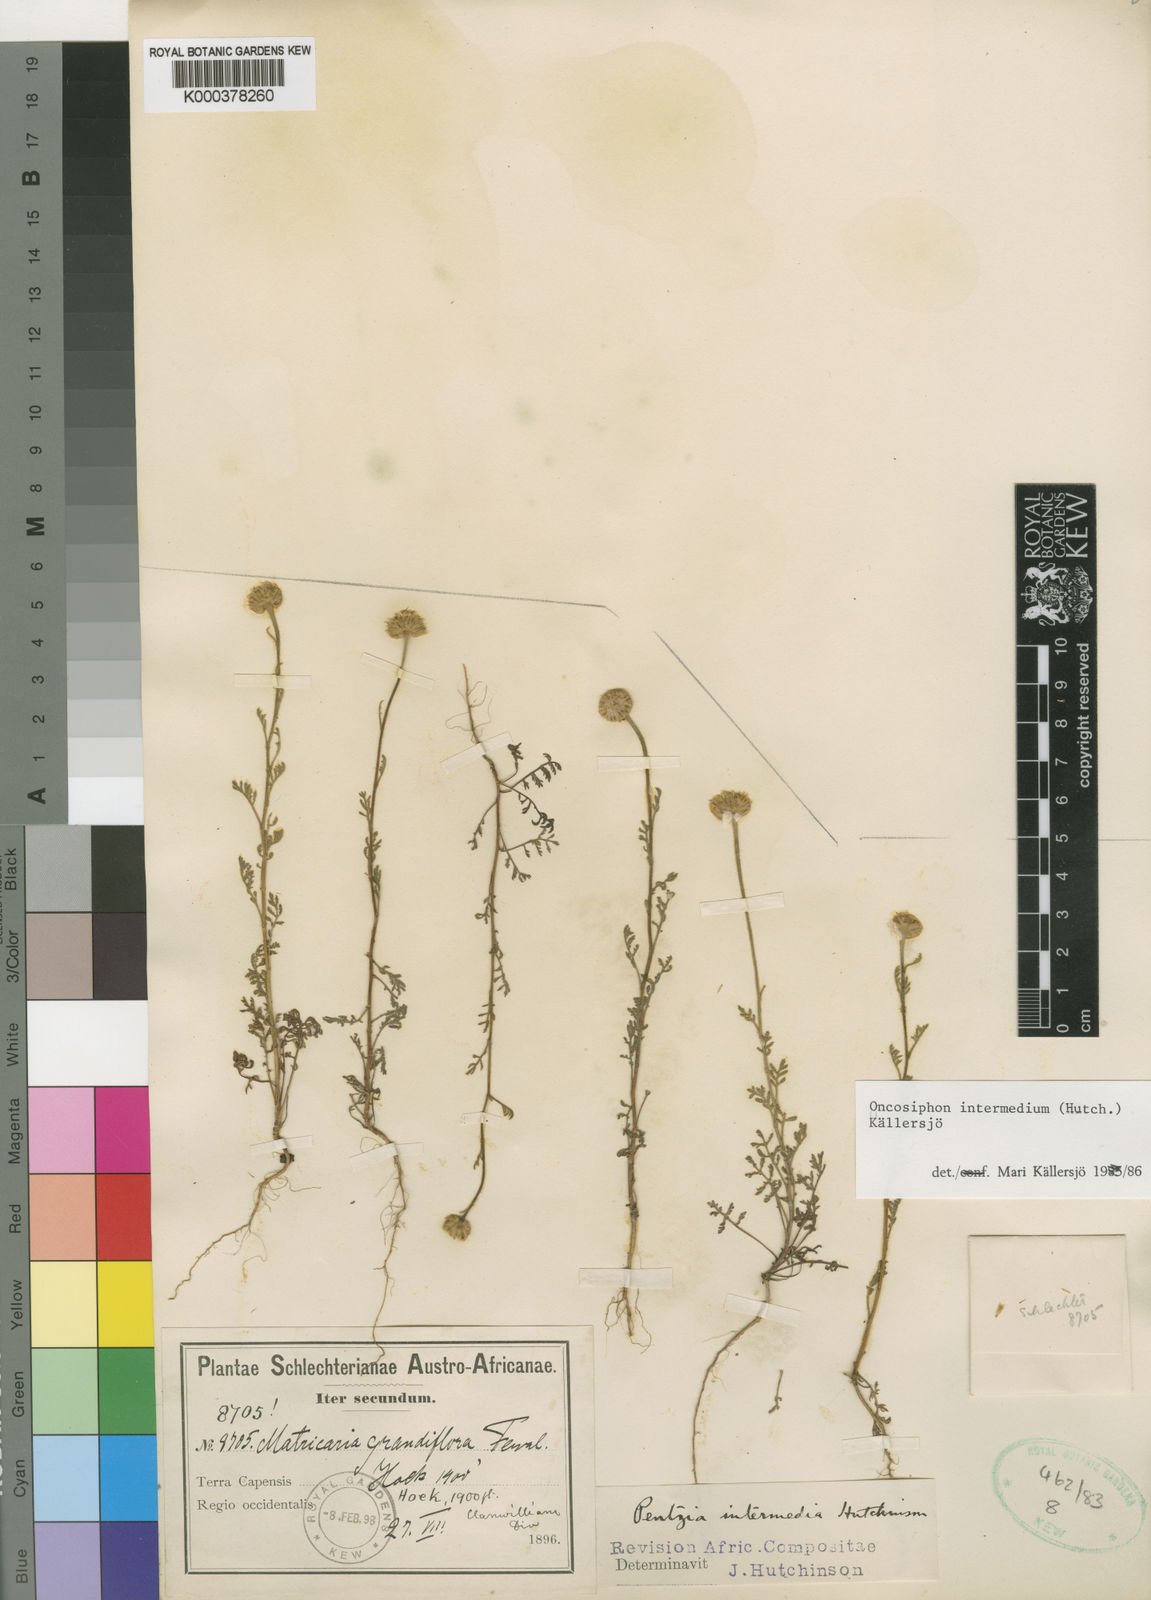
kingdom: Plantae
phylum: Tracheophyta
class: Magnoliopsida
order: Asterales
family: Asteraceae
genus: Oncosiphon
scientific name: Oncosiphon
